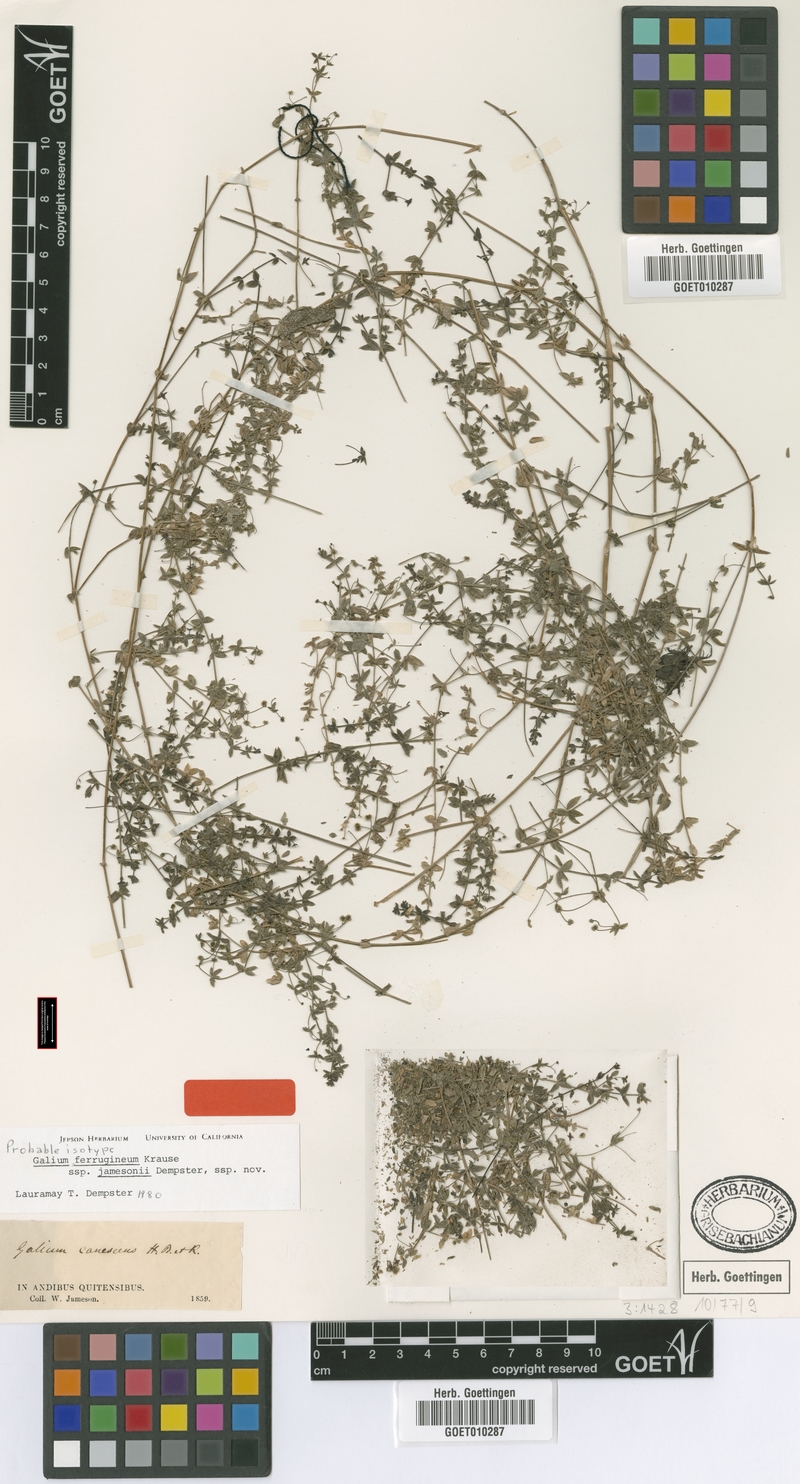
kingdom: Plantae
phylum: Tracheophyta
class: Magnoliopsida
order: Gentianales
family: Rubiaceae
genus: Galium
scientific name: Galium ferrugineum
